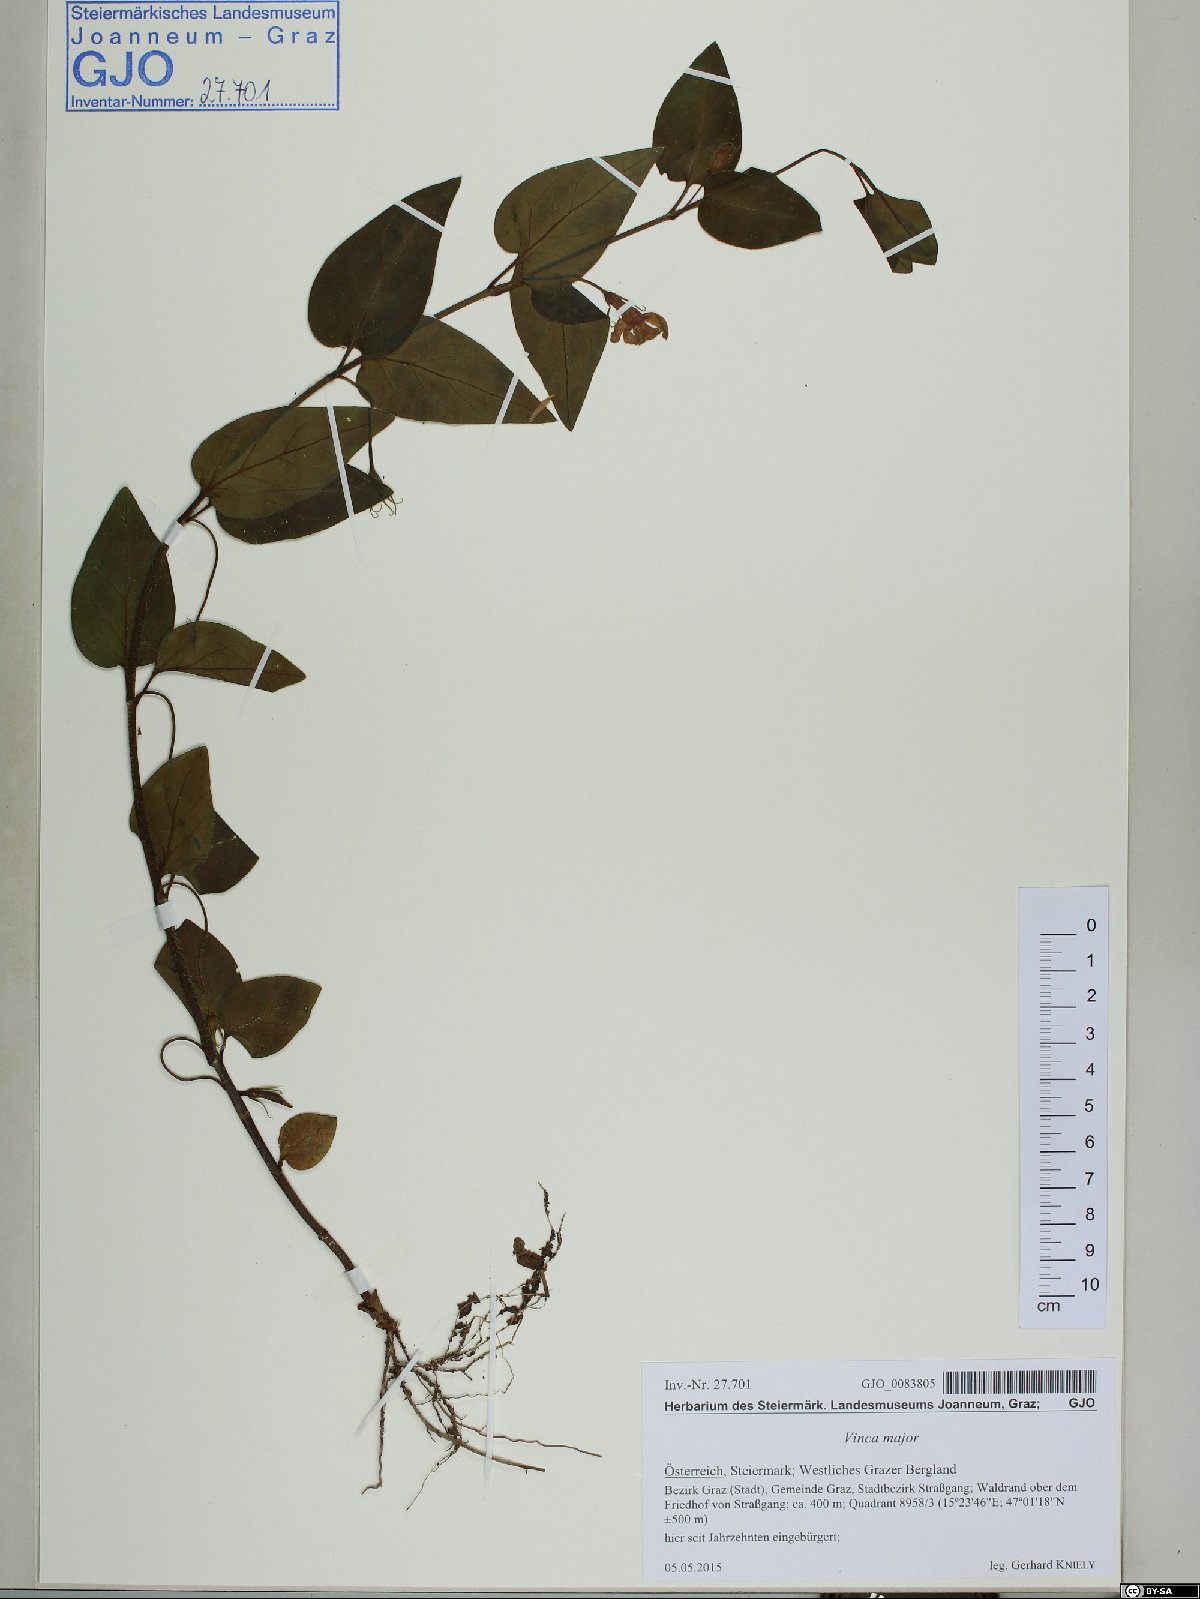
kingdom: Plantae
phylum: Tracheophyta
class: Magnoliopsida
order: Gentianales
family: Apocynaceae
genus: Vinca
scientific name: Vinca major
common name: Greater periwinkle
